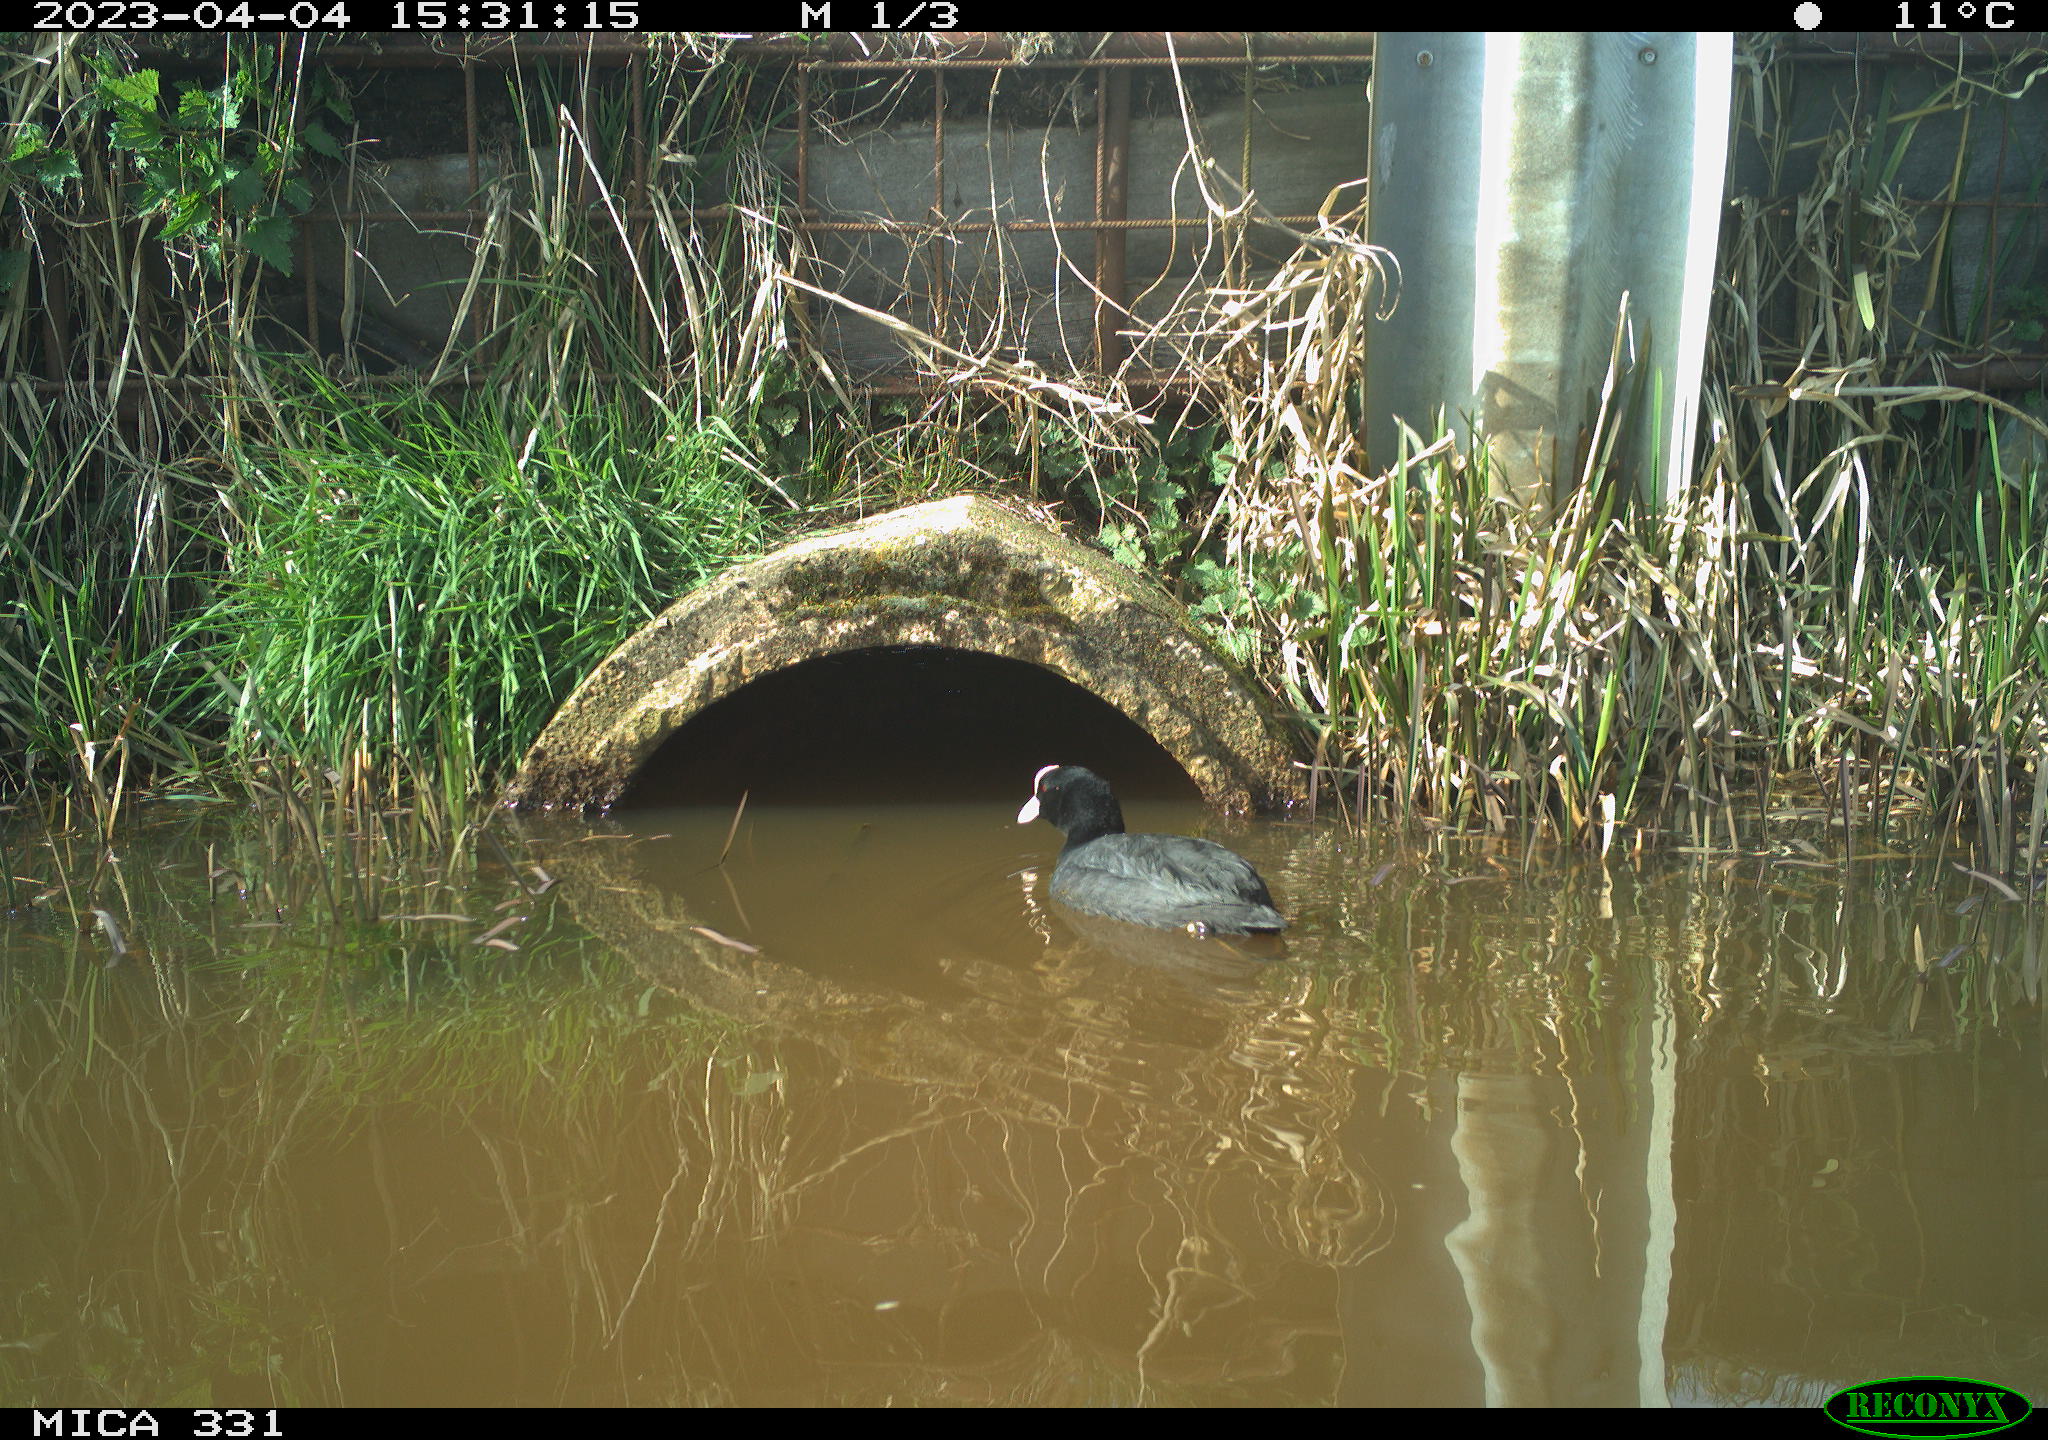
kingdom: Animalia
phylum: Chordata
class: Aves
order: Gruiformes
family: Rallidae
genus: Gallinula
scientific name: Gallinula chloropus
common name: Common moorhen
